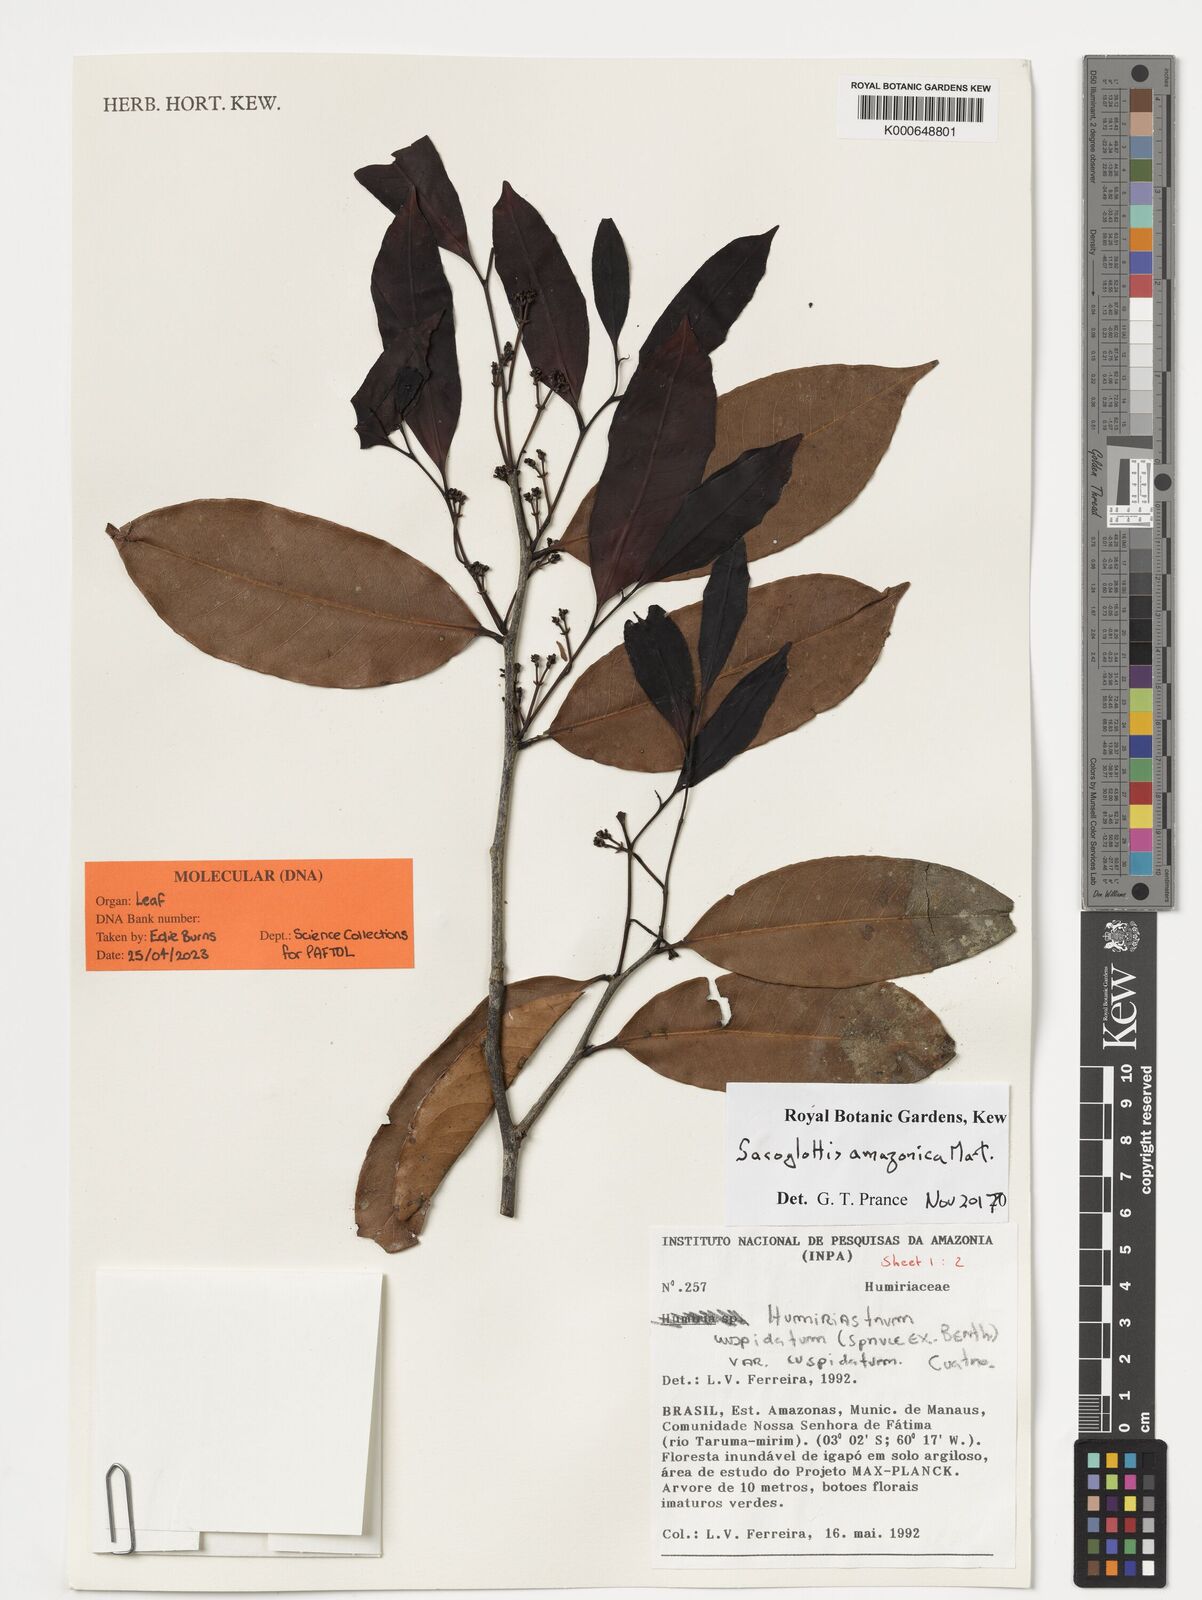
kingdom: Plantae
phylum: Tracheophyta
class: Magnoliopsida
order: Malpighiales
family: Humiriaceae
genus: Sacoglottis
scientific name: Sacoglottis amazonica
